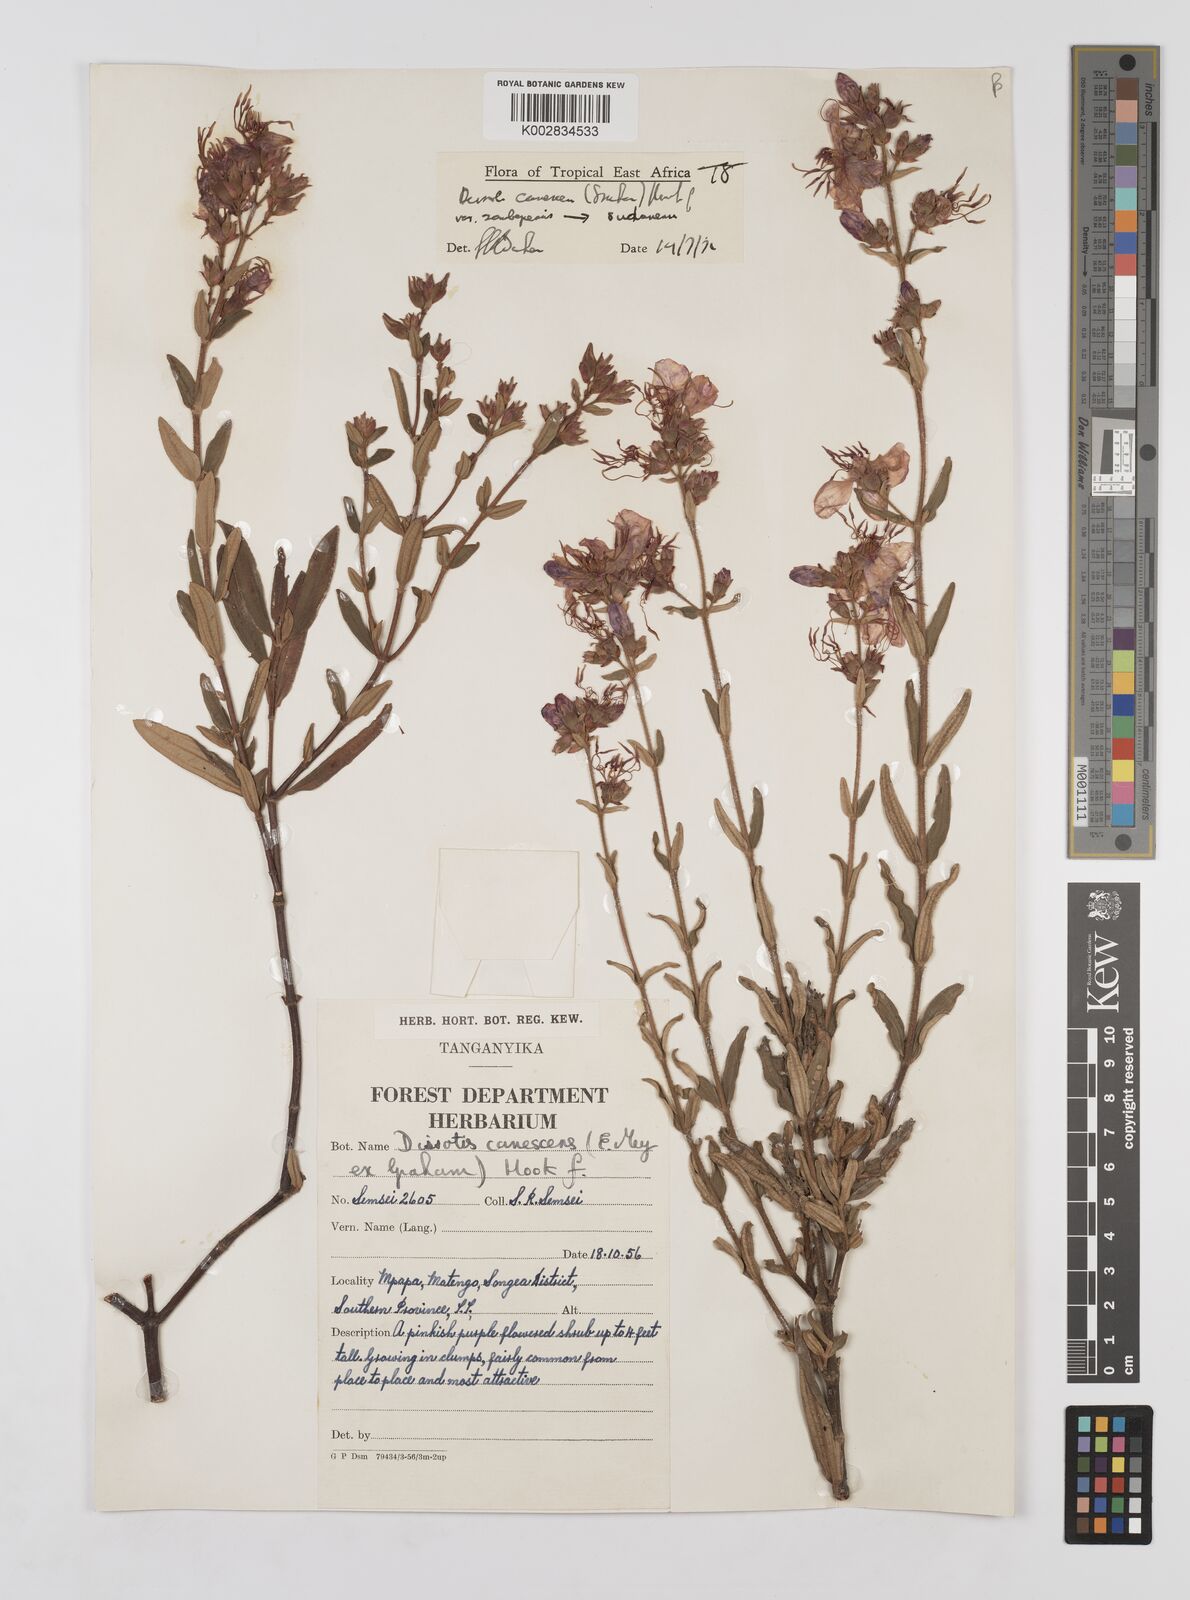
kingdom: Plantae
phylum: Tracheophyta
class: Magnoliopsida
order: Myrtales
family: Melastomataceae
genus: Argyrella
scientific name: Argyrella canescens
